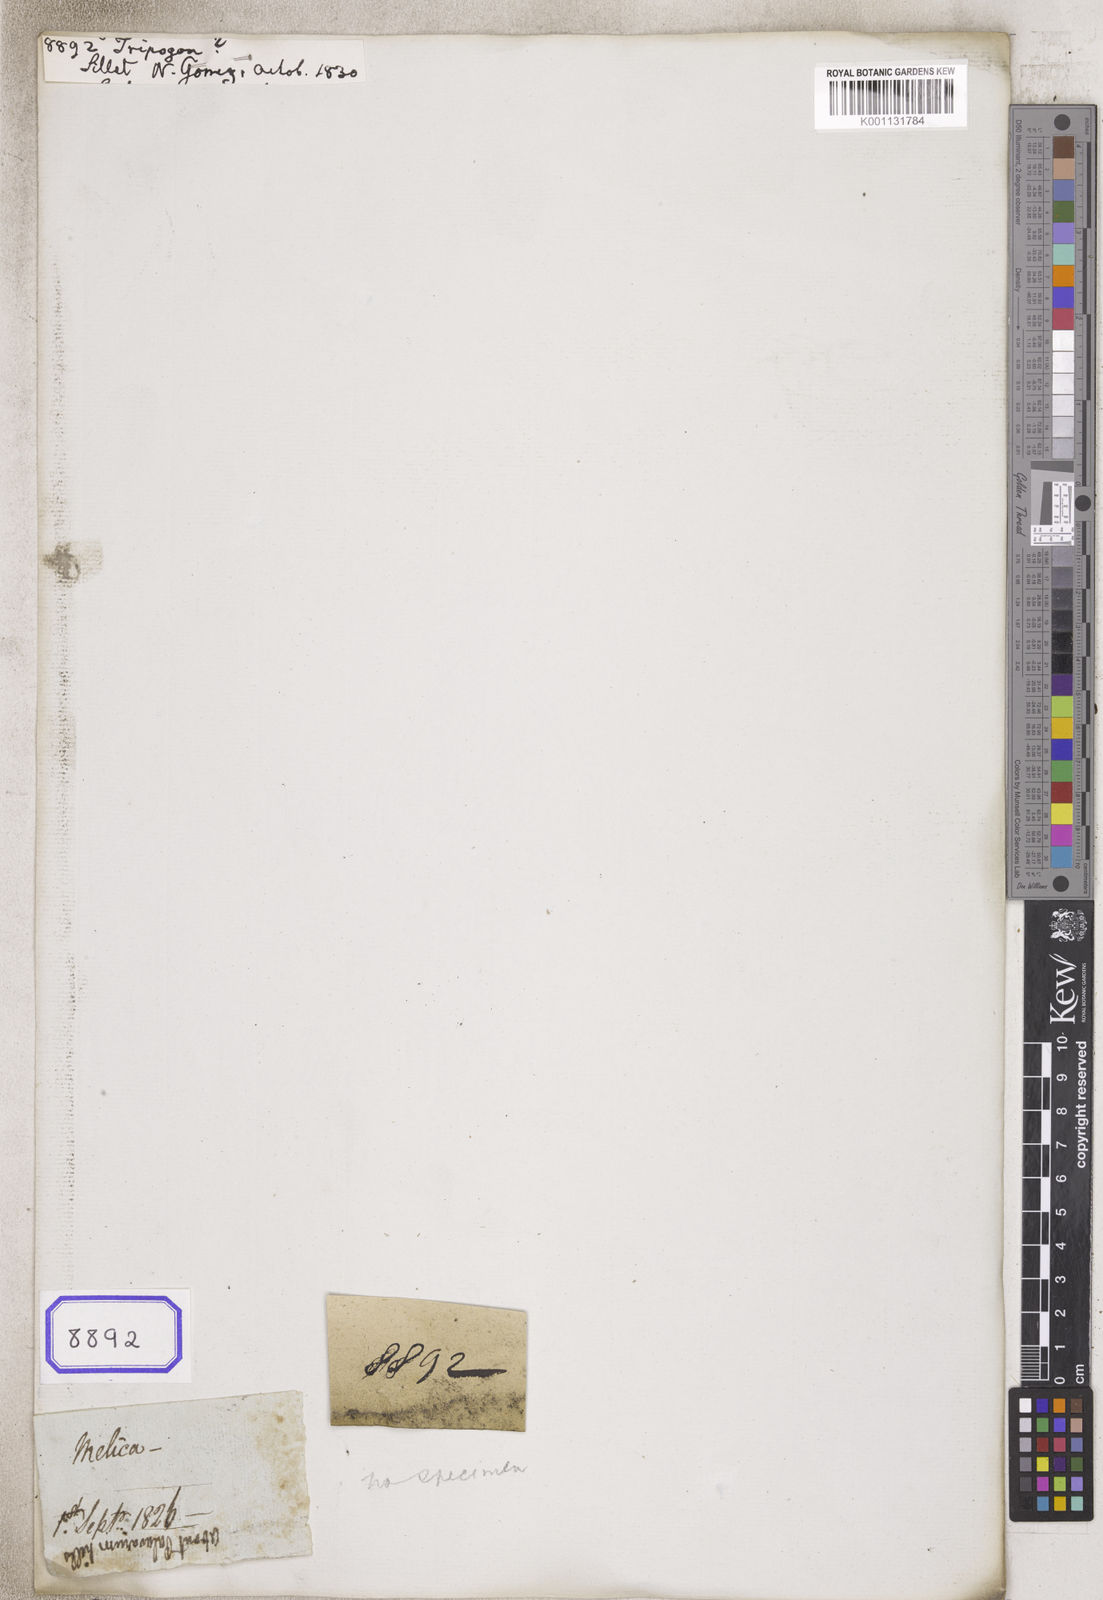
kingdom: Plantae
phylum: Tracheophyta
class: Liliopsida
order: Poales
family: Poaceae
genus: Tripogon
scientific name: Tripogon
